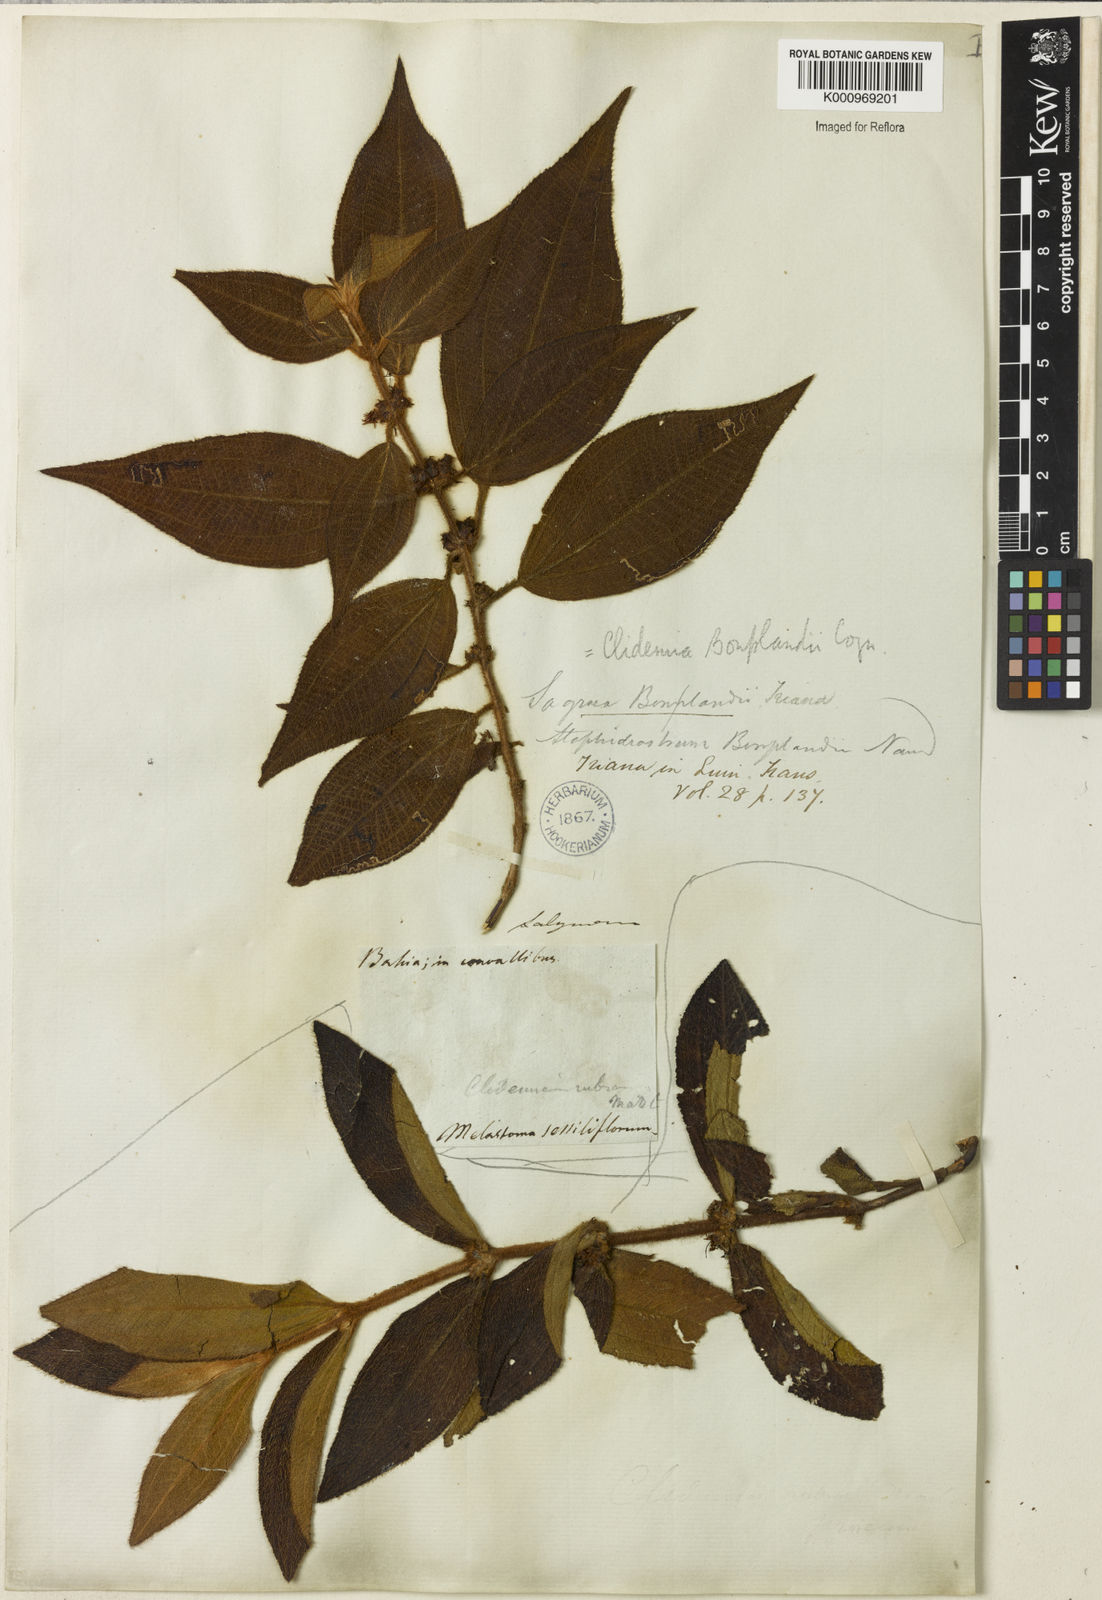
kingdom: Plantae
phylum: Tracheophyta
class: Magnoliopsida
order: Myrtales
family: Melastomataceae
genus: Miconia
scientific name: Miconia debilis
